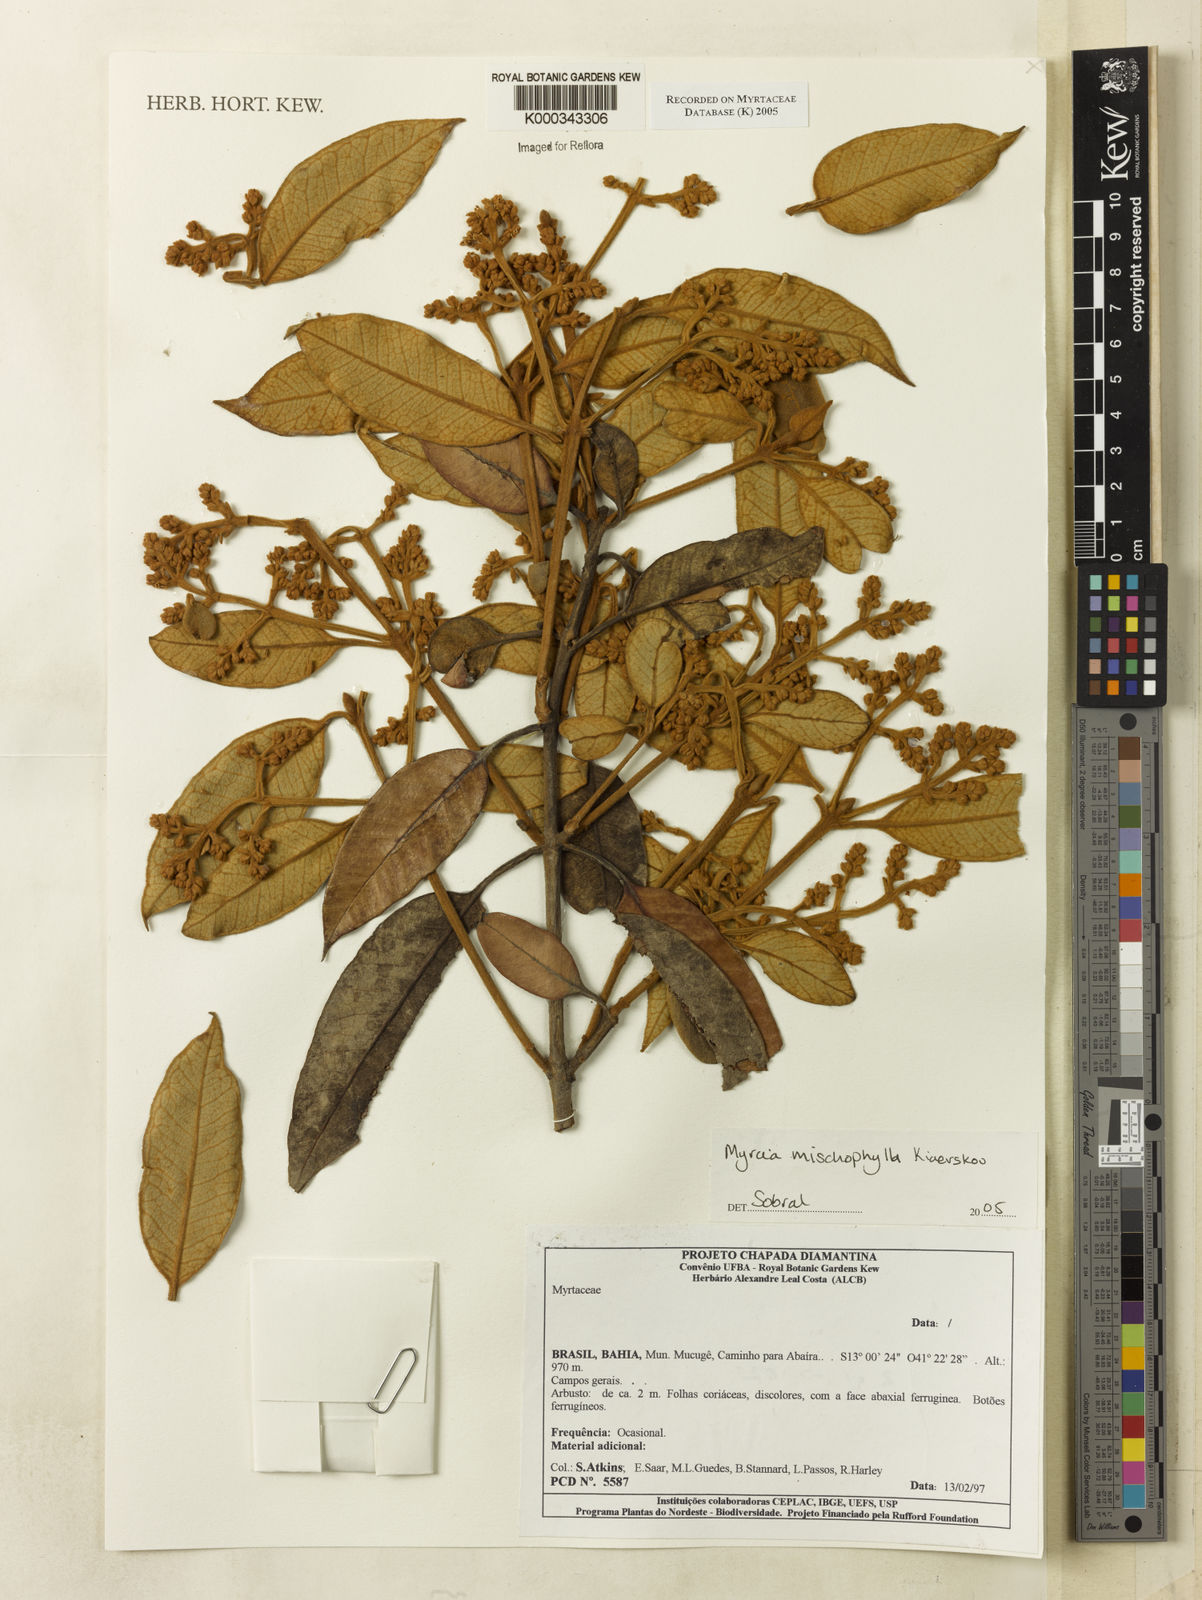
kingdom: Plantae
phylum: Tracheophyta
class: Magnoliopsida
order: Myrtales
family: Myrtaceae
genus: Myrcia
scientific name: Myrcia mischophylla
